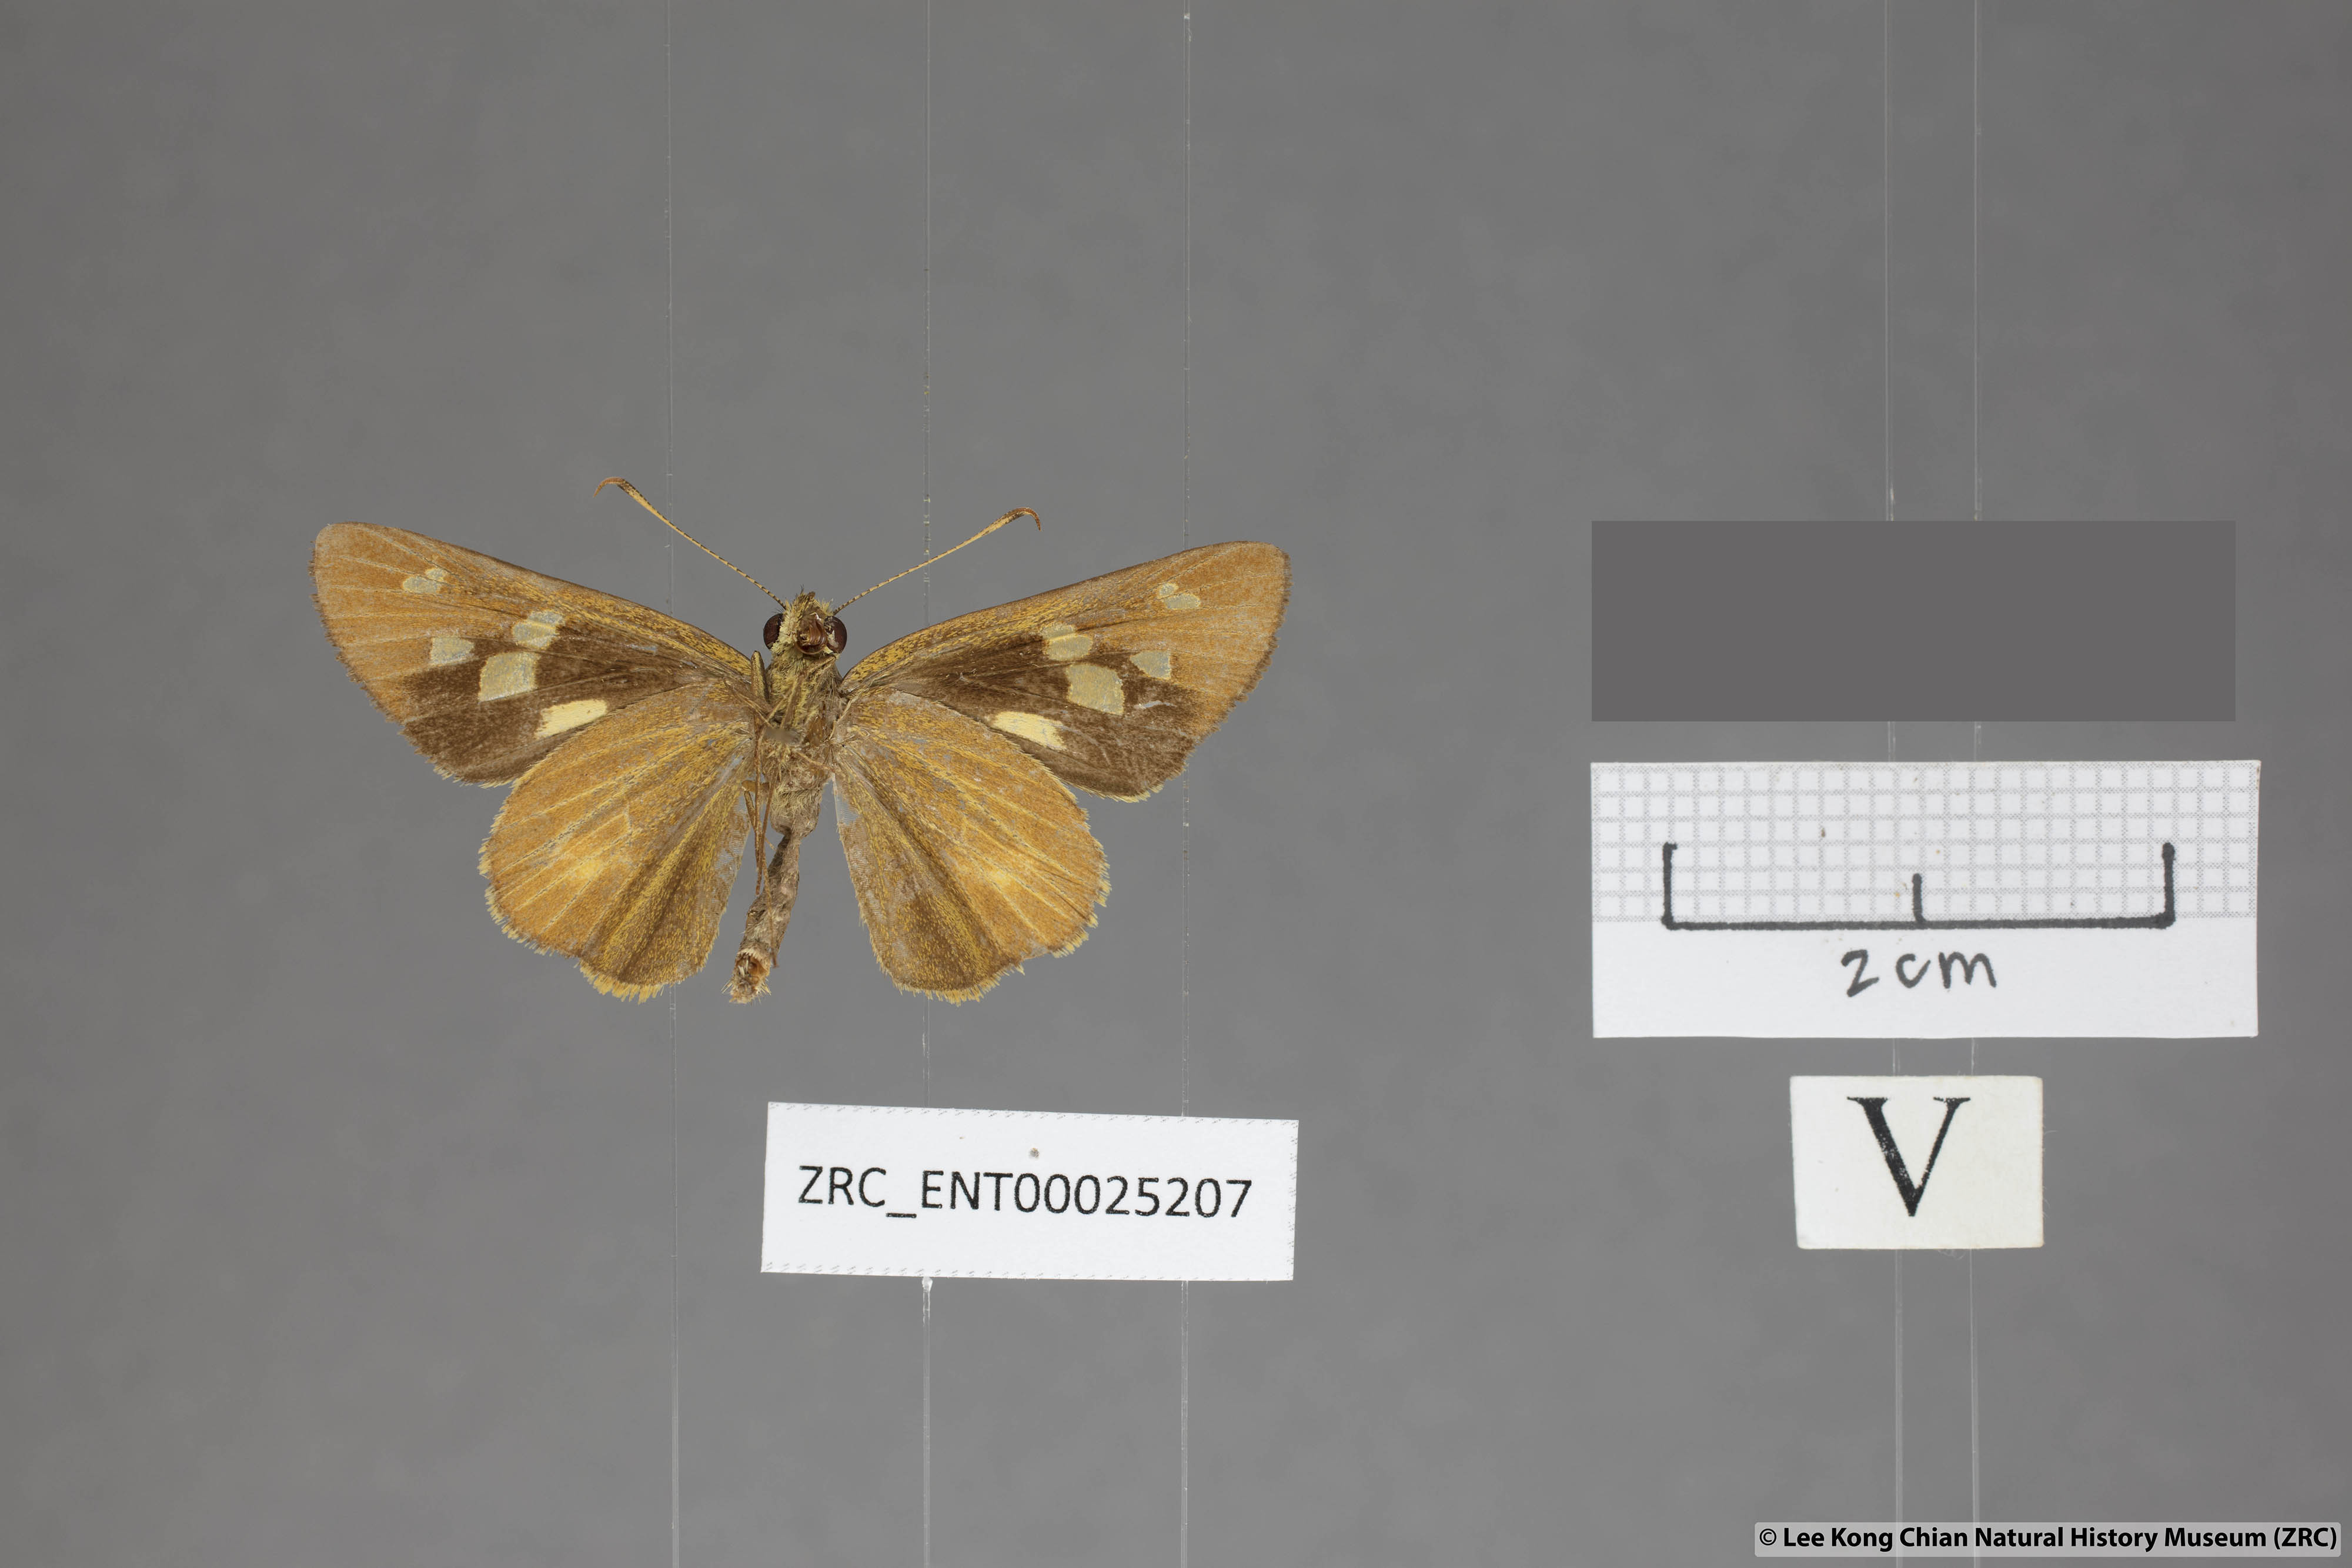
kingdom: Animalia
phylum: Arthropoda
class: Insecta
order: Lepidoptera
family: Hesperiidae
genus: Xanthoneura
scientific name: Xanthoneura corissa
